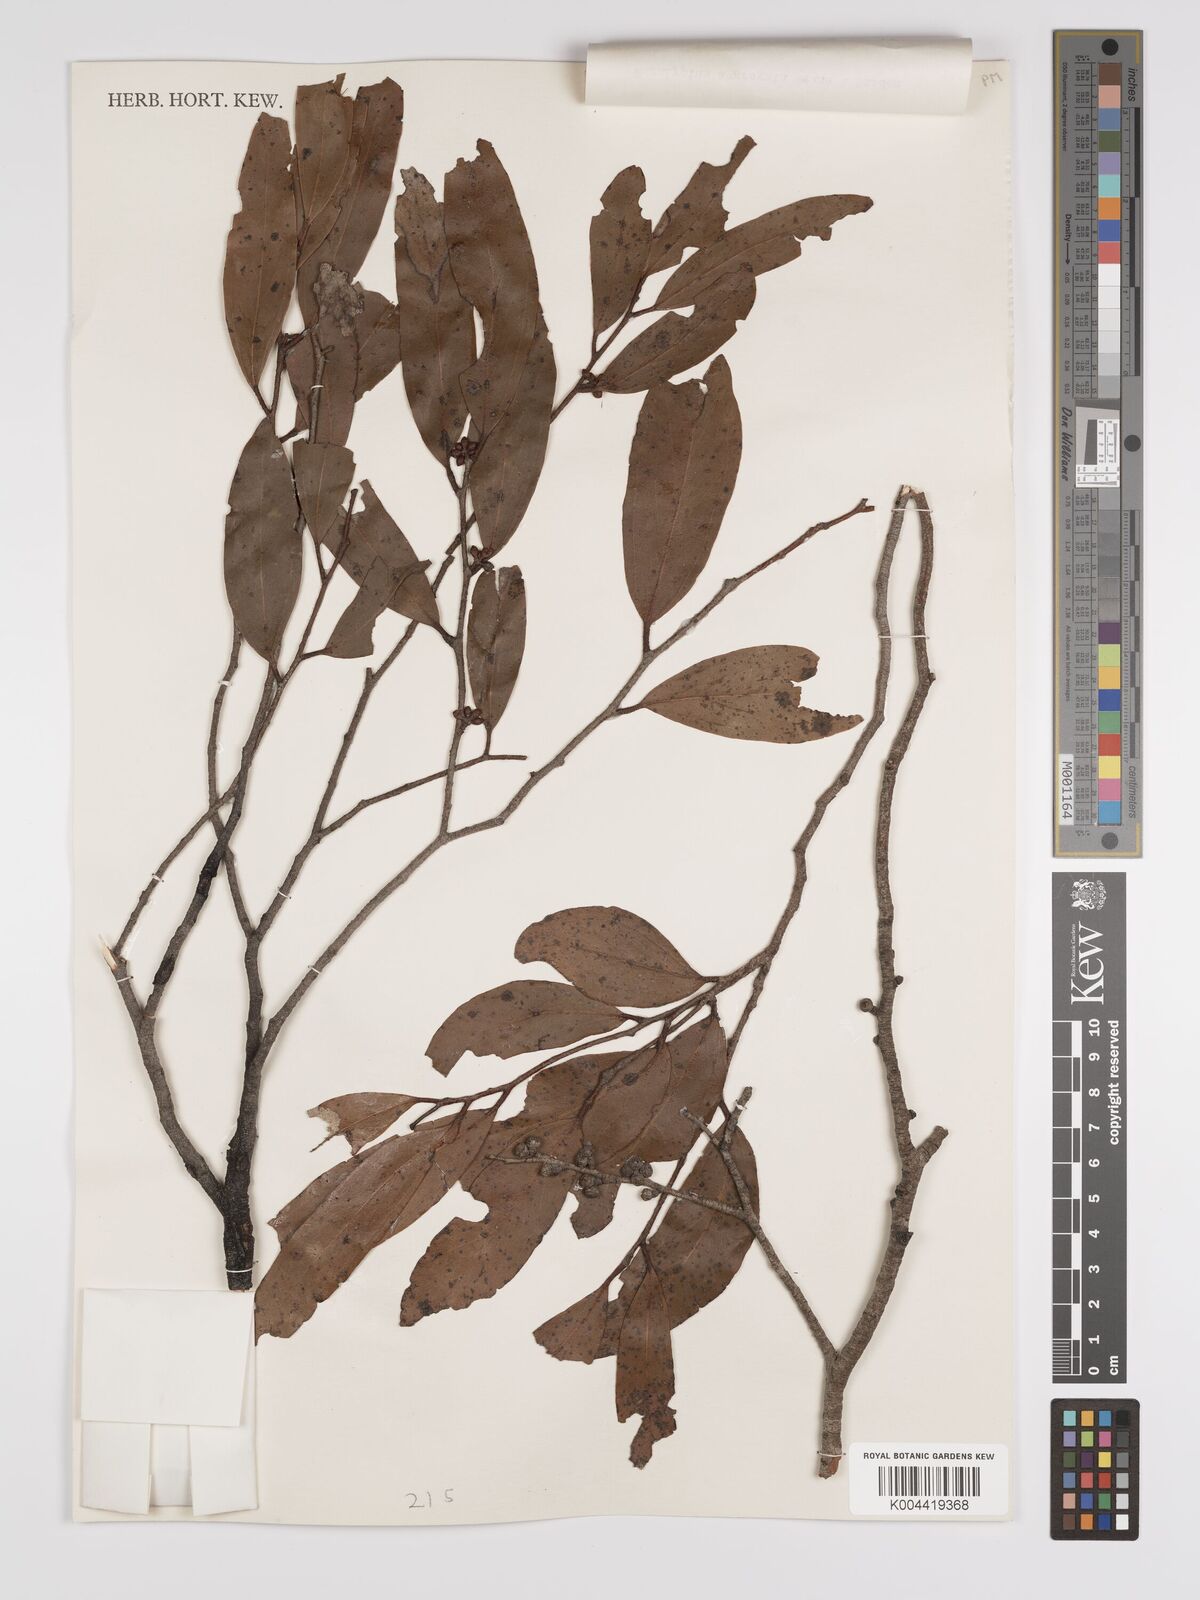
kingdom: Plantae
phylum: Tracheophyta
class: Magnoliopsida
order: Myrtales
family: Myrtaceae
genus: Eucalyptus
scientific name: Eucalyptus aggregata
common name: Black gum
